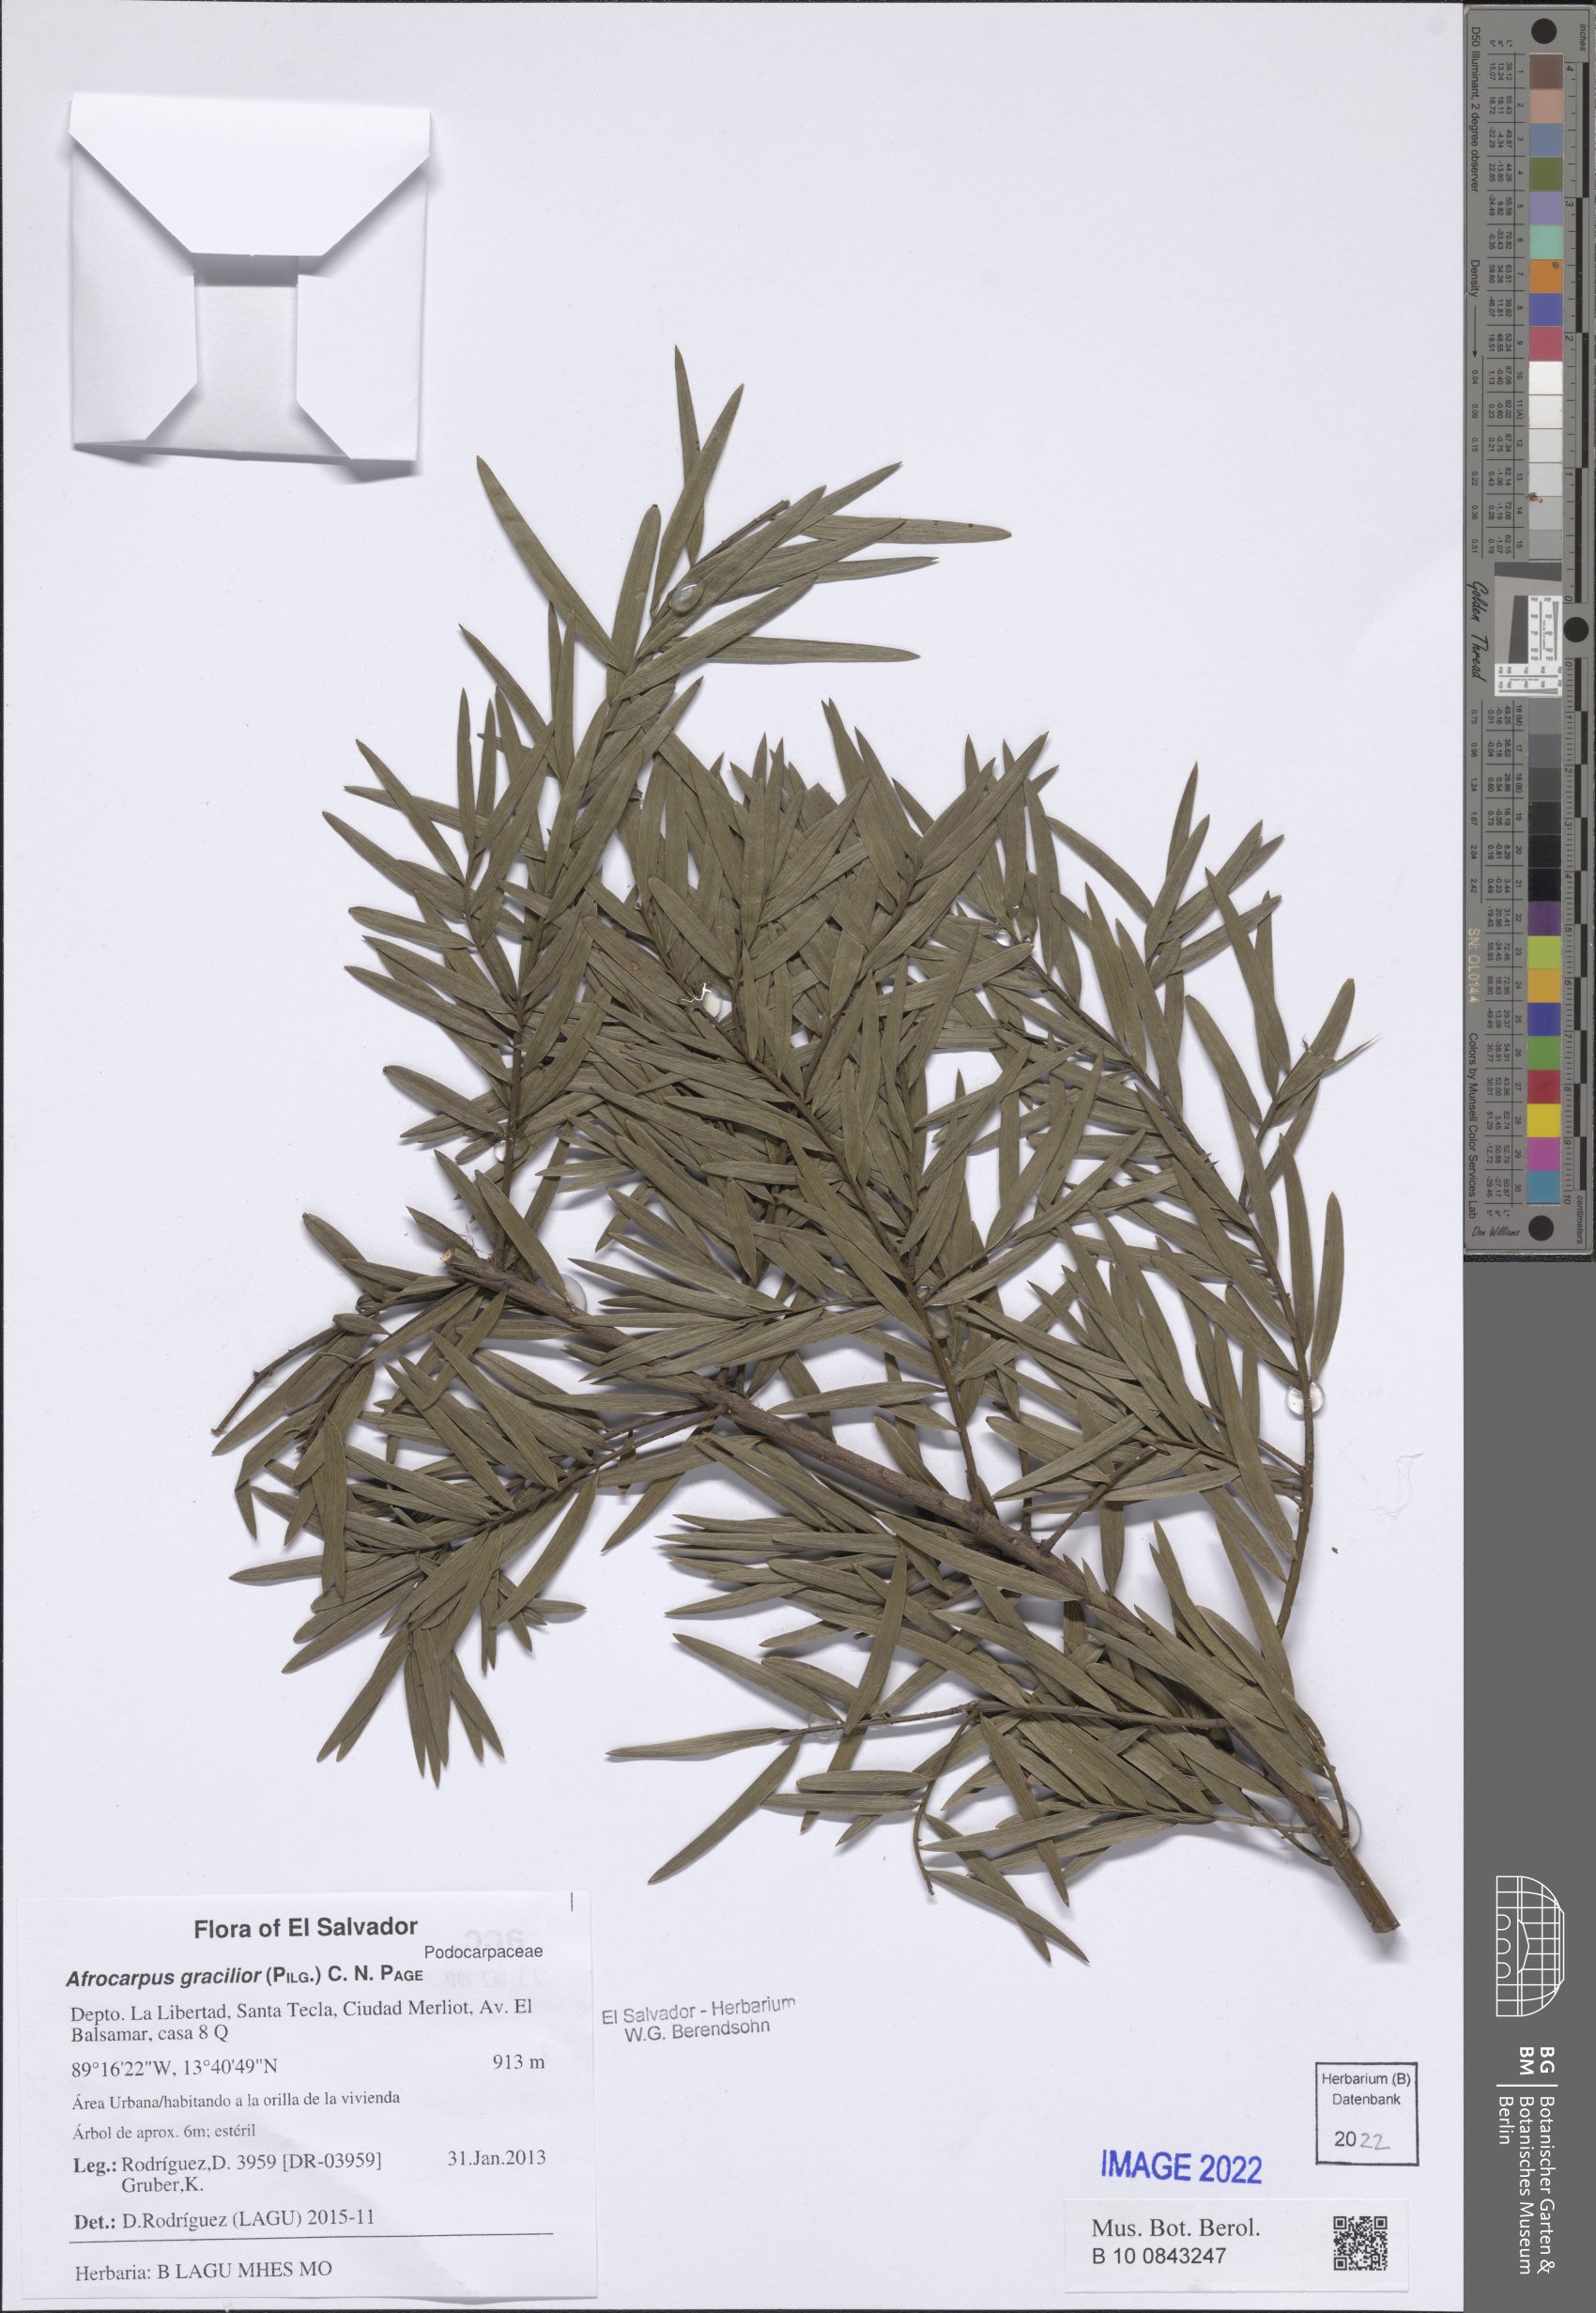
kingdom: Plantae
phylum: Tracheophyta
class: Pinopsida
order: Pinales
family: Podocarpaceae
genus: Afrocarpus
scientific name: Afrocarpus gracilior
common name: East african yellowwood
